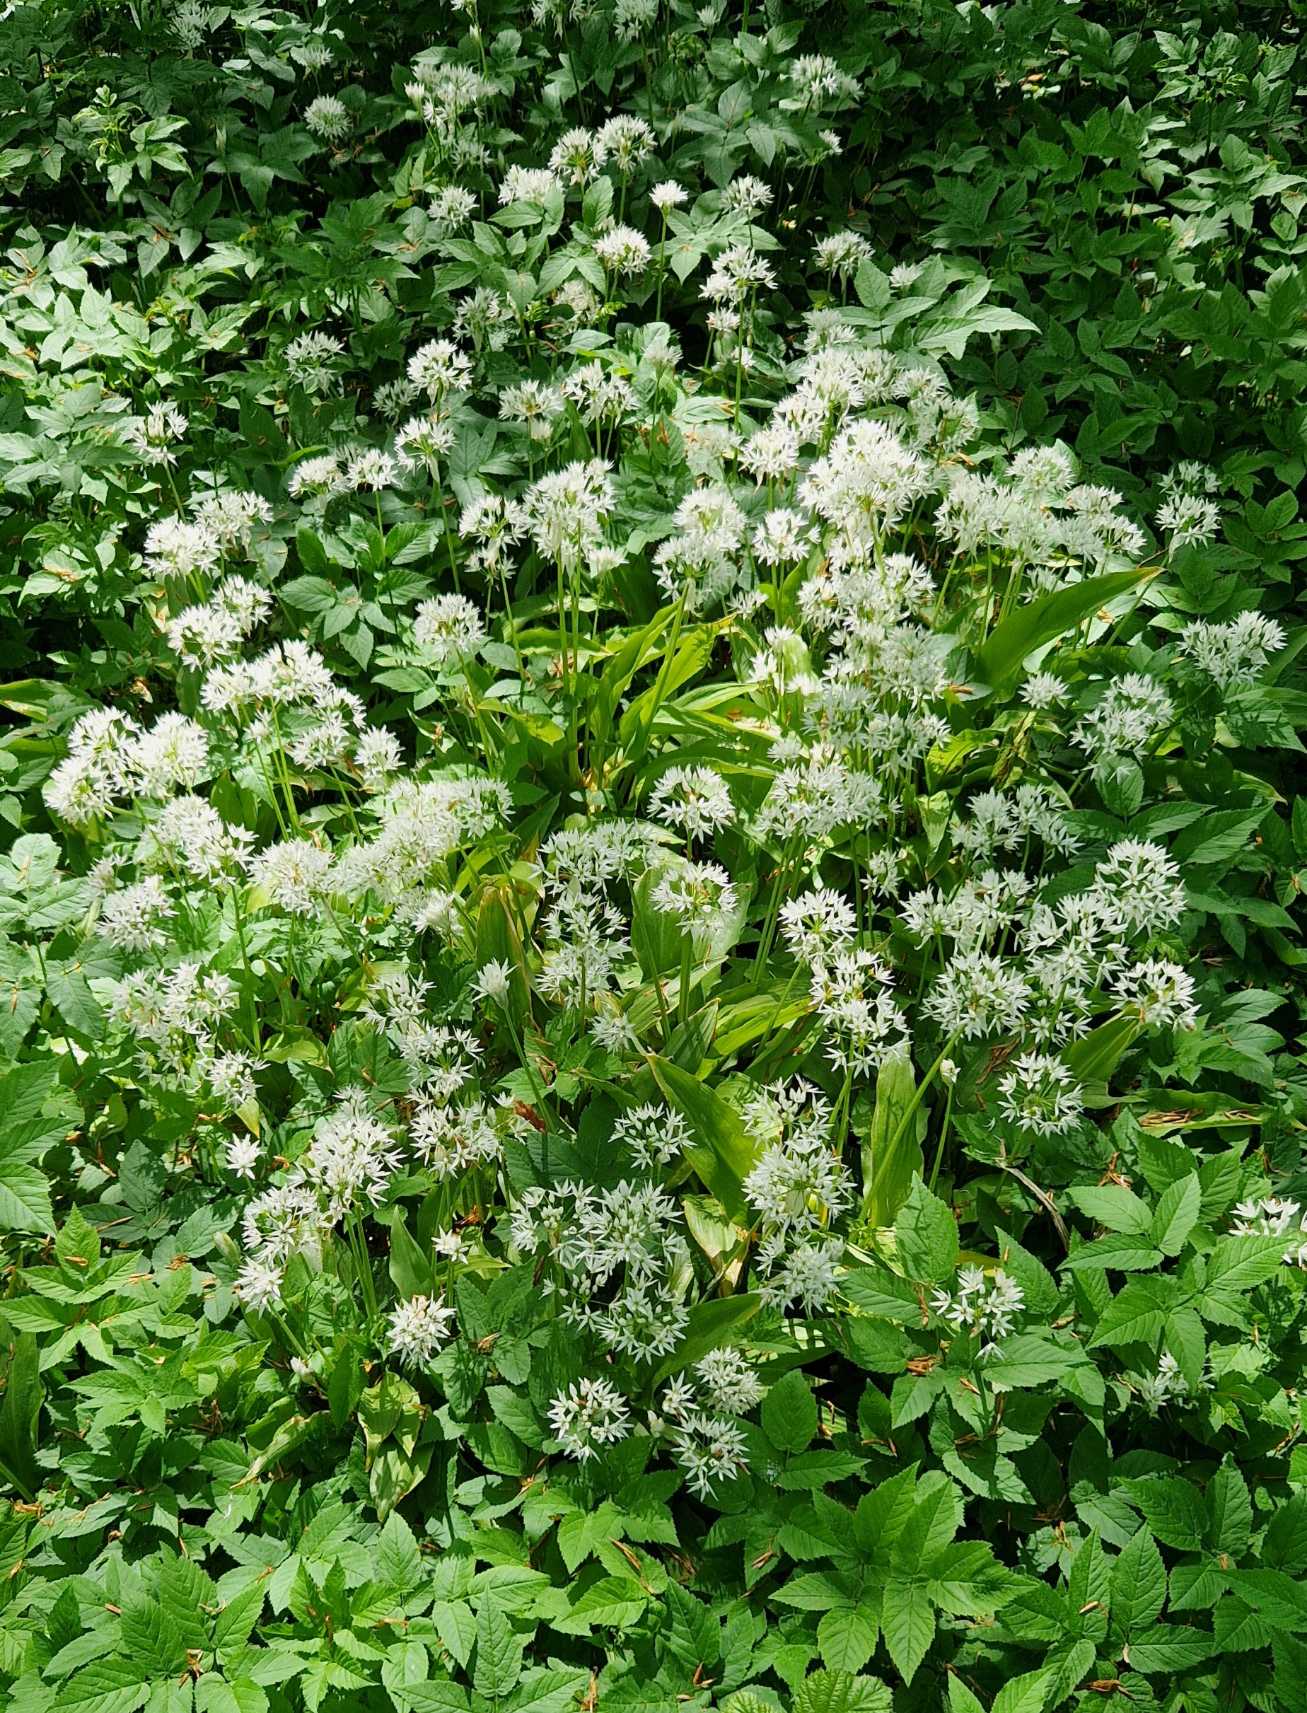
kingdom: Plantae
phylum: Tracheophyta
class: Liliopsida
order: Asparagales
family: Amaryllidaceae
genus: Allium
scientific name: Allium ursinum
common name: Rams-løg
